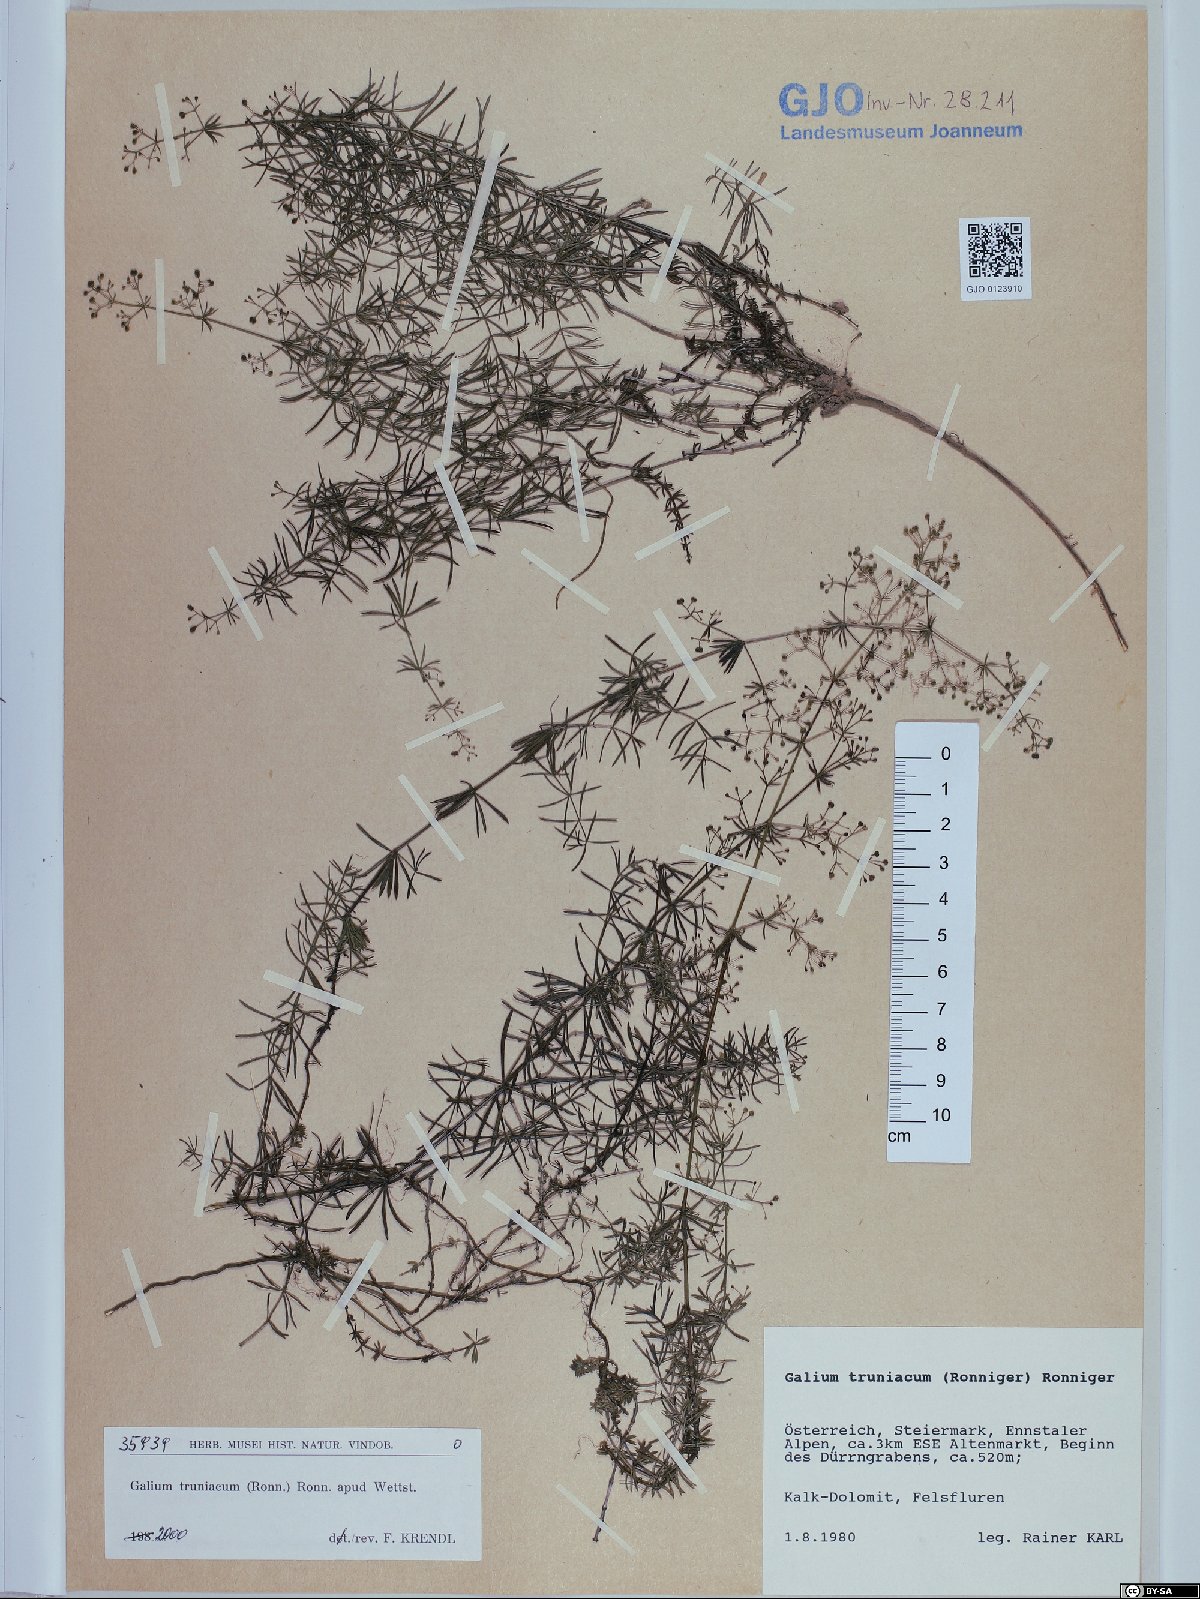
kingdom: Plantae
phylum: Tracheophyta
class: Magnoliopsida
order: Gentianales
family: Rubiaceae
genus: Galium
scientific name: Galium truniacum
